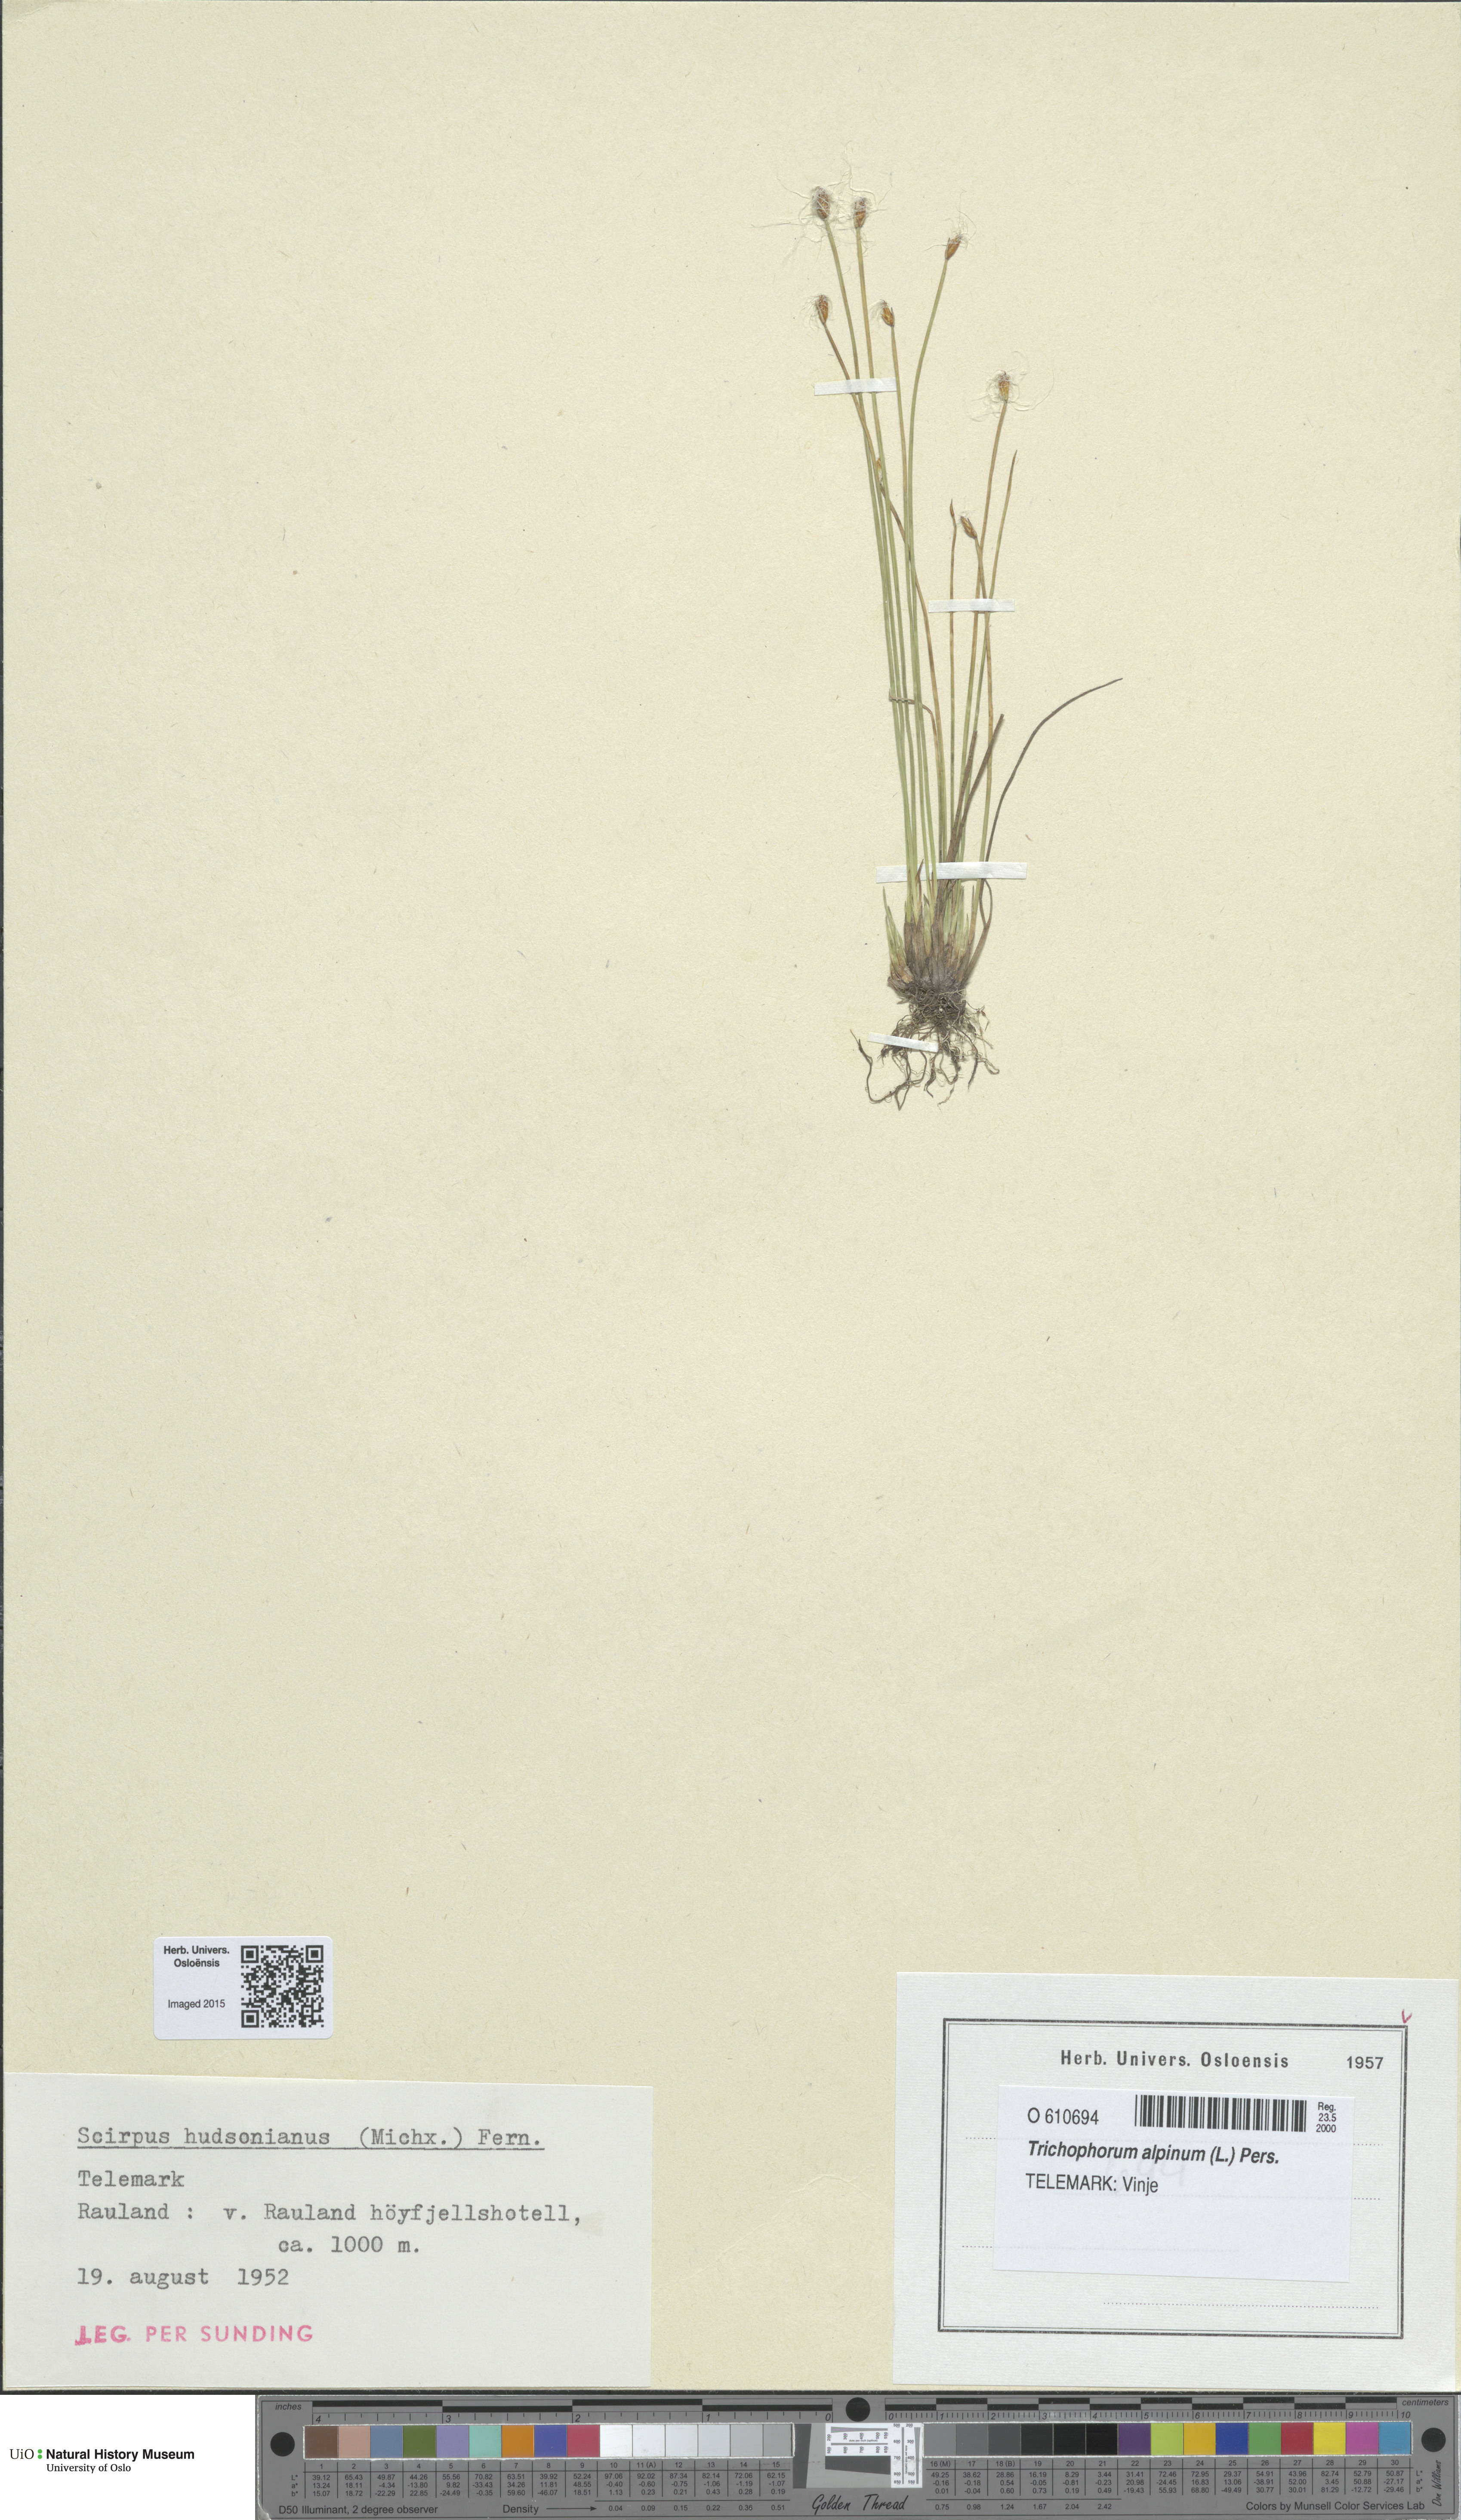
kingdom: Plantae
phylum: Tracheophyta
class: Liliopsida
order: Poales
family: Cyperaceae
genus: Trichophorum
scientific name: Trichophorum alpinum
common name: Alpine bulrush
